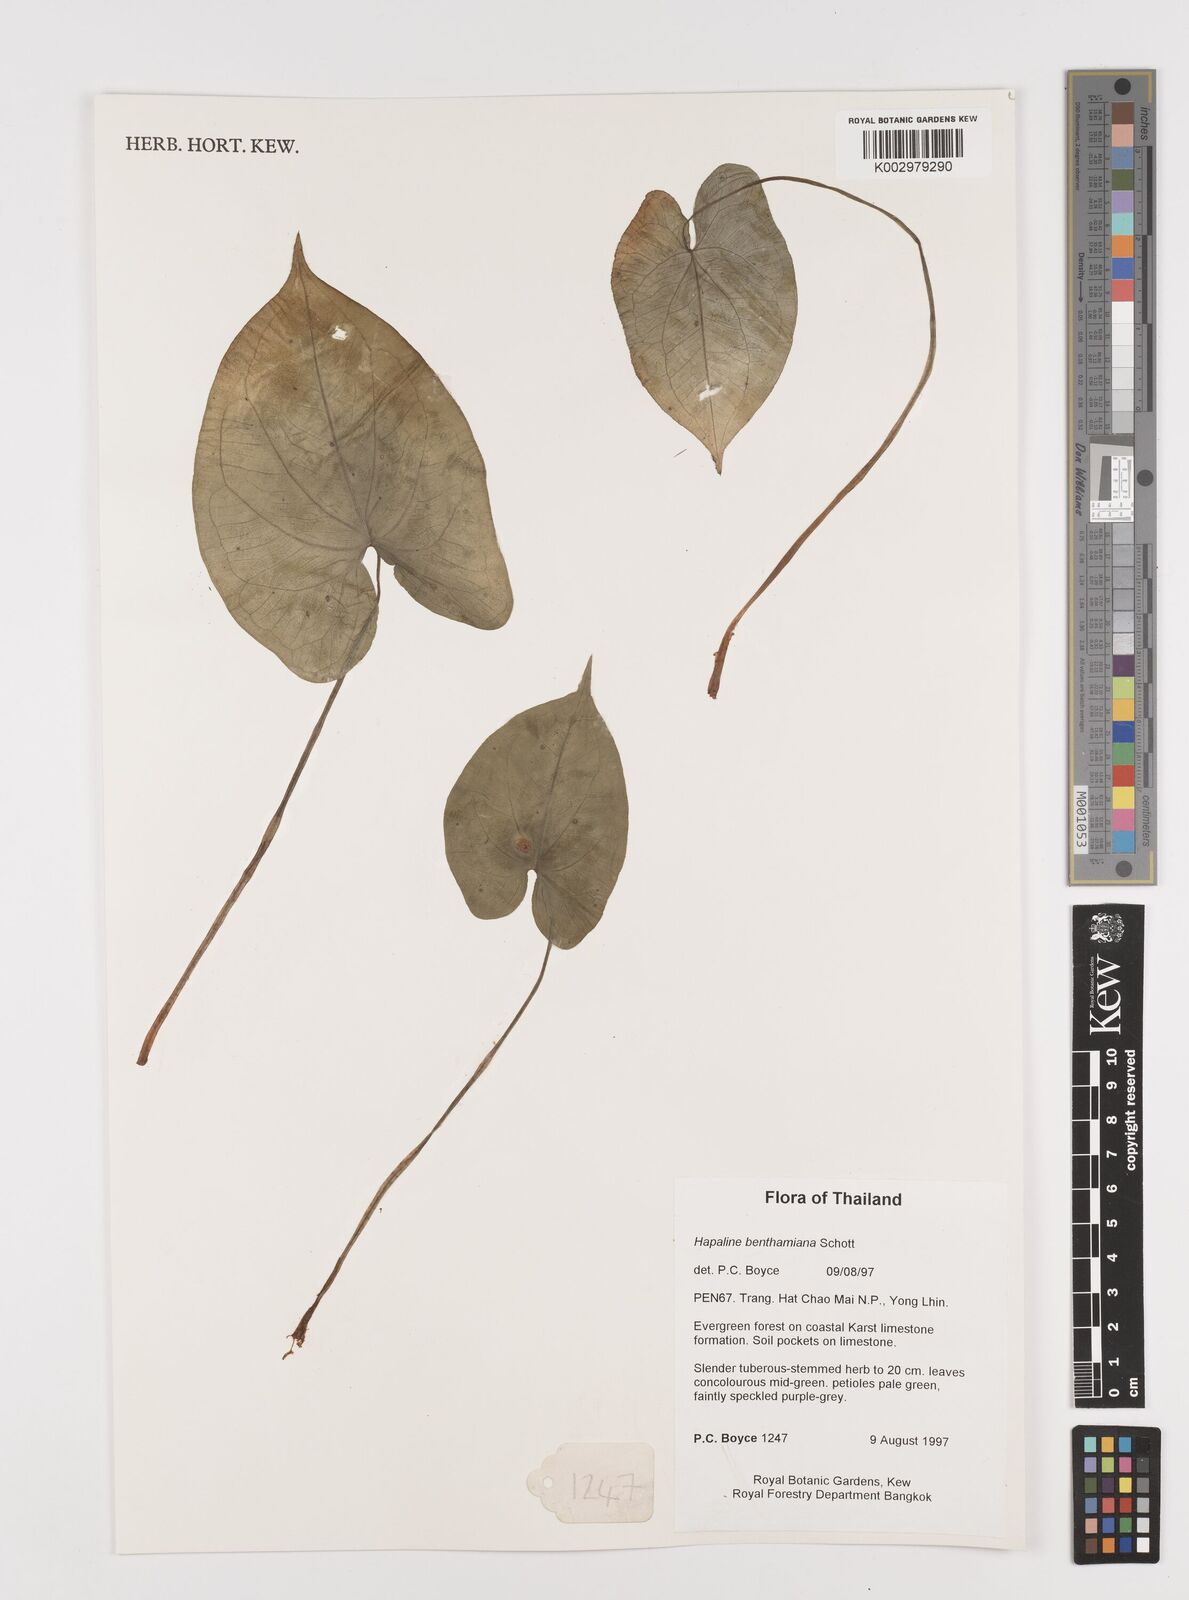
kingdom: Plantae
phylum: Tracheophyta
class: Liliopsida
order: Alismatales
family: Araceae
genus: Hapaline
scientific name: Hapaline benthamiana
